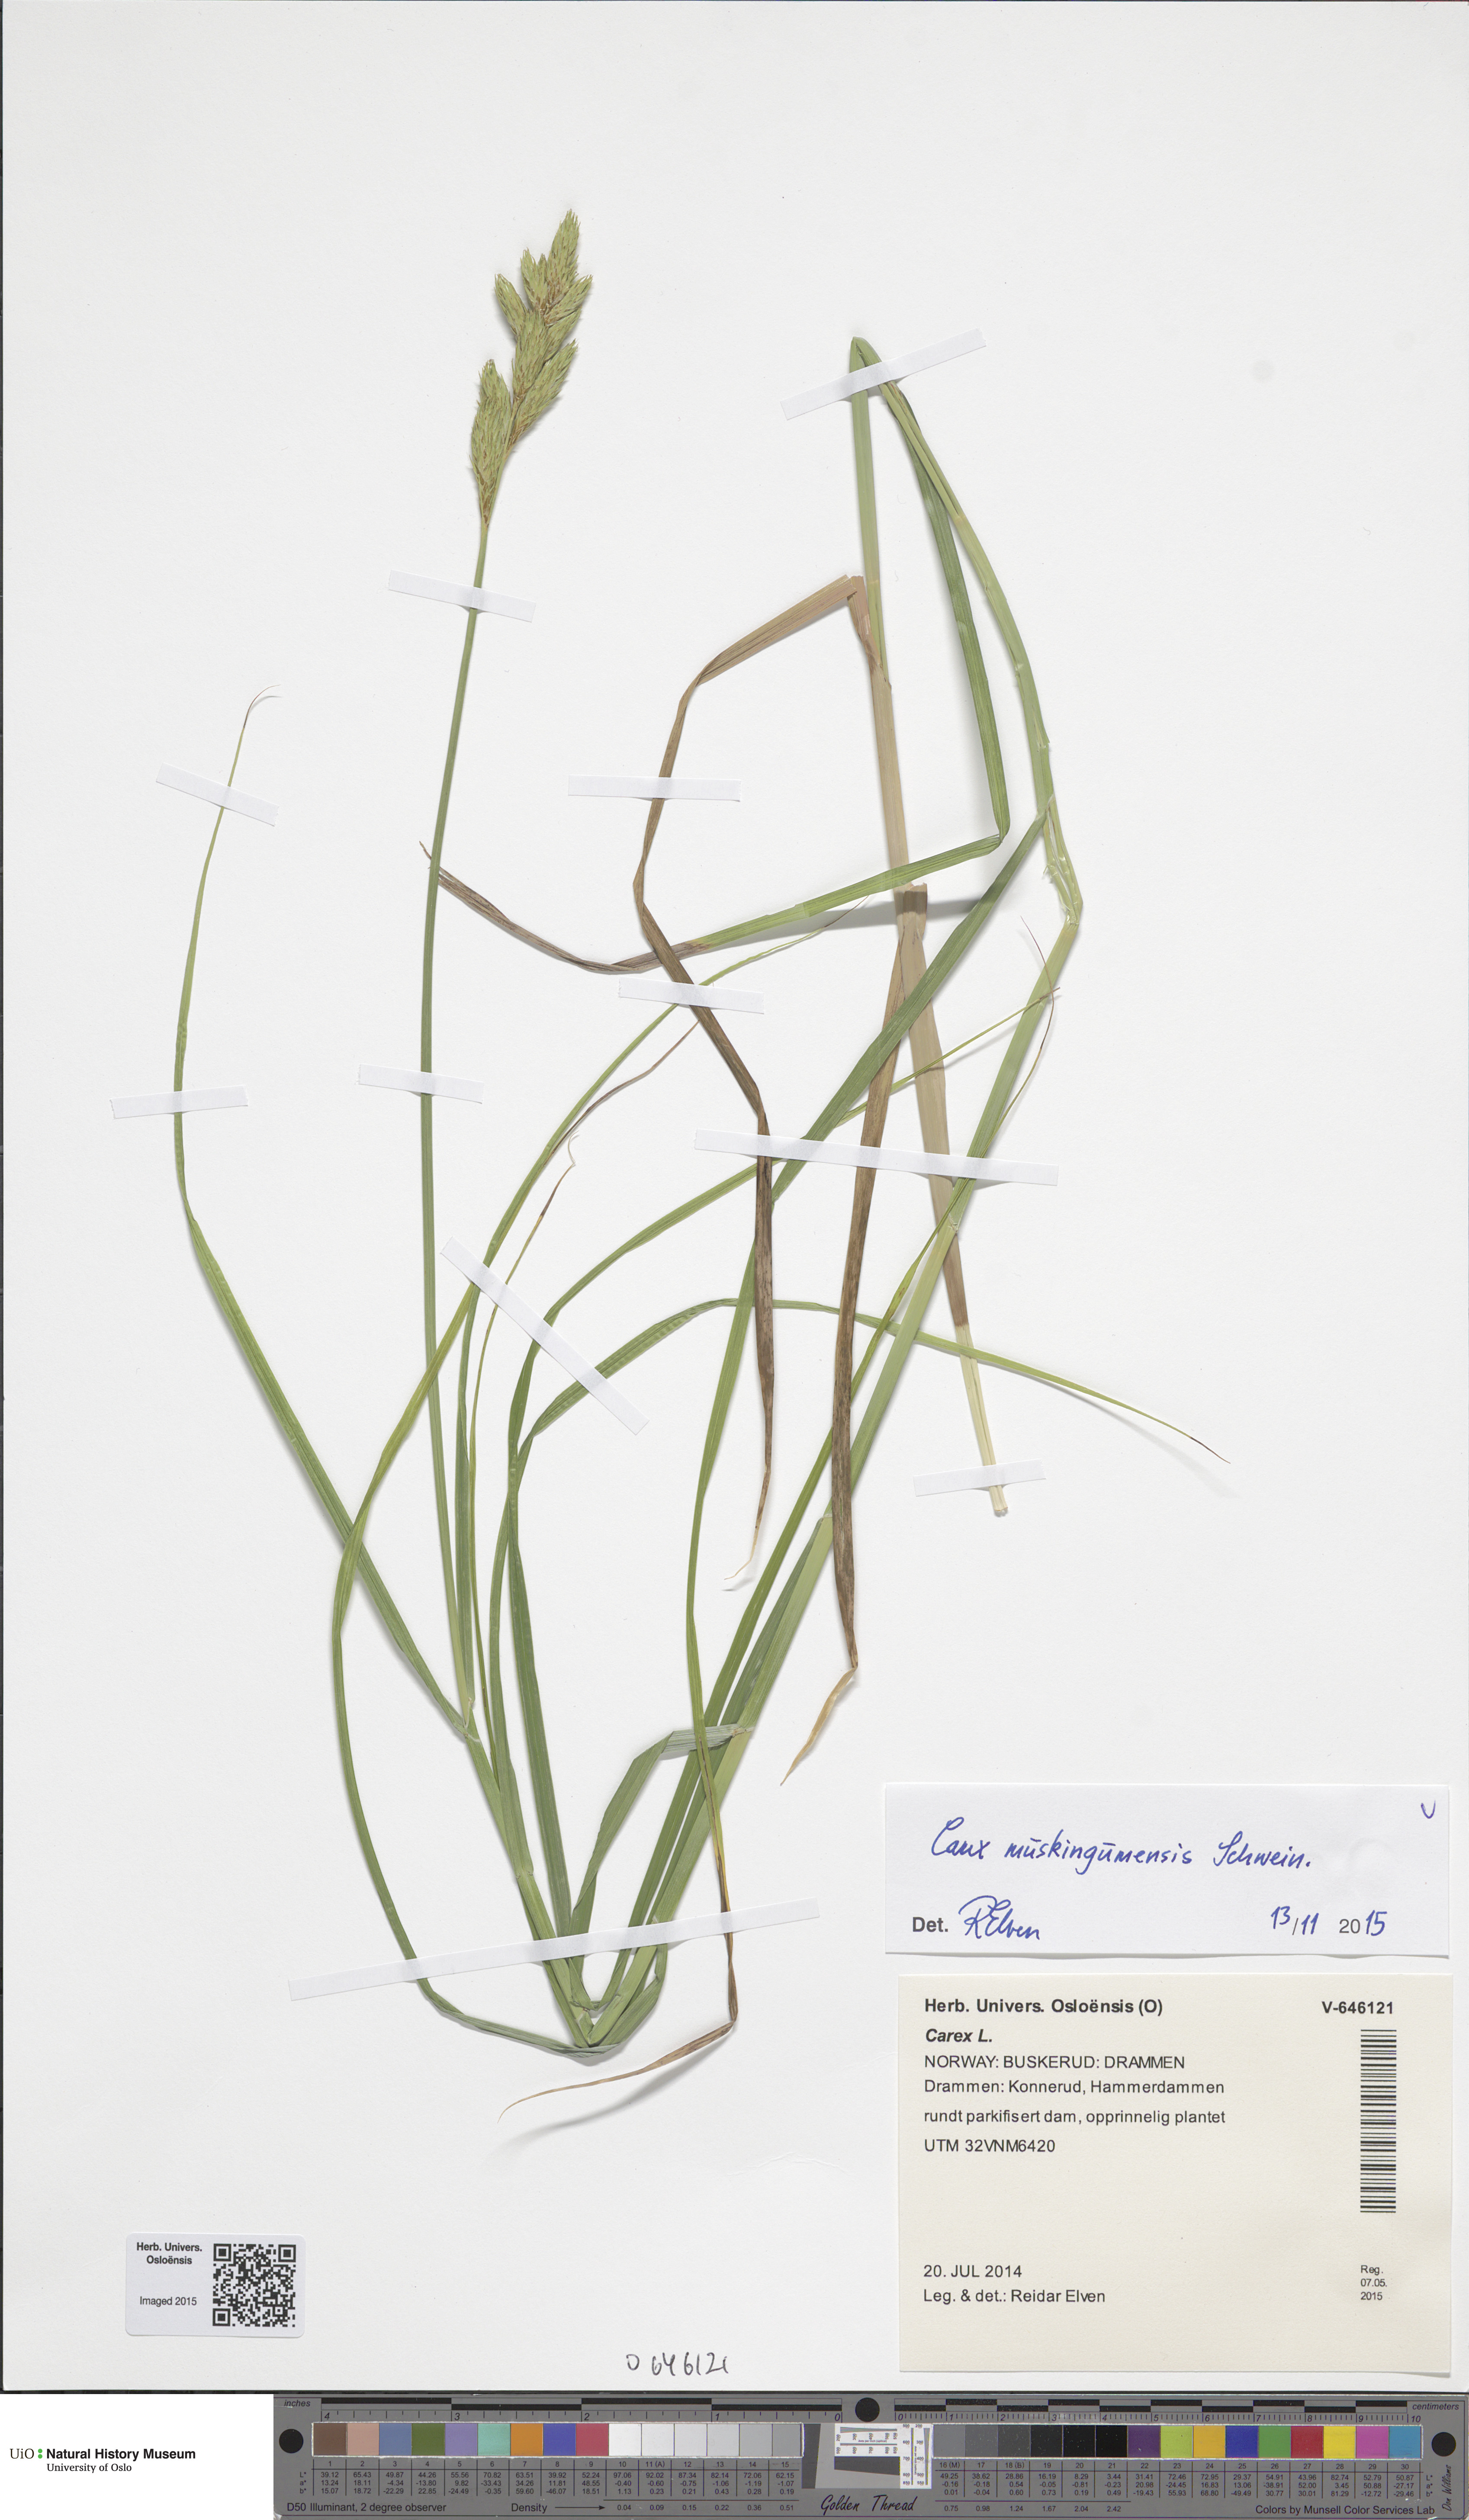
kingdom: Plantae
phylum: Tracheophyta
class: Liliopsida
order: Poales
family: Cyperaceae
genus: Carex
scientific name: Carex muskingumensis
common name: Muskingum sedge
